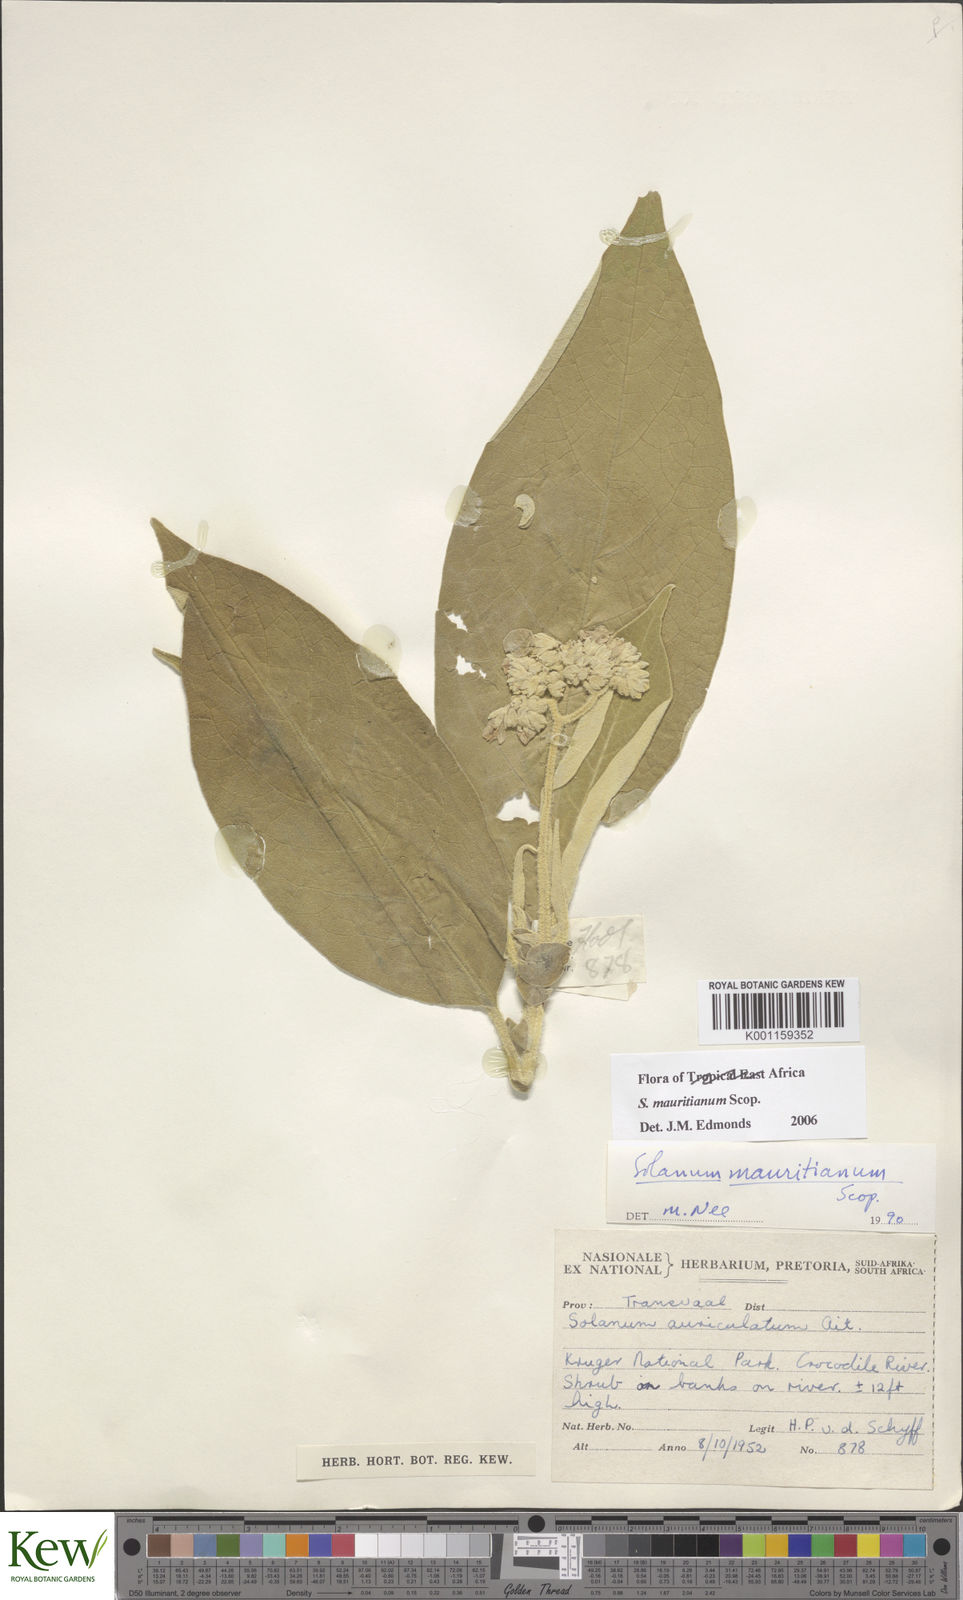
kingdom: Plantae
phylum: Tracheophyta
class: Magnoliopsida
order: Solanales
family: Solanaceae
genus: Solanum
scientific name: Solanum mauritianum
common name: Earleaf nightshade
